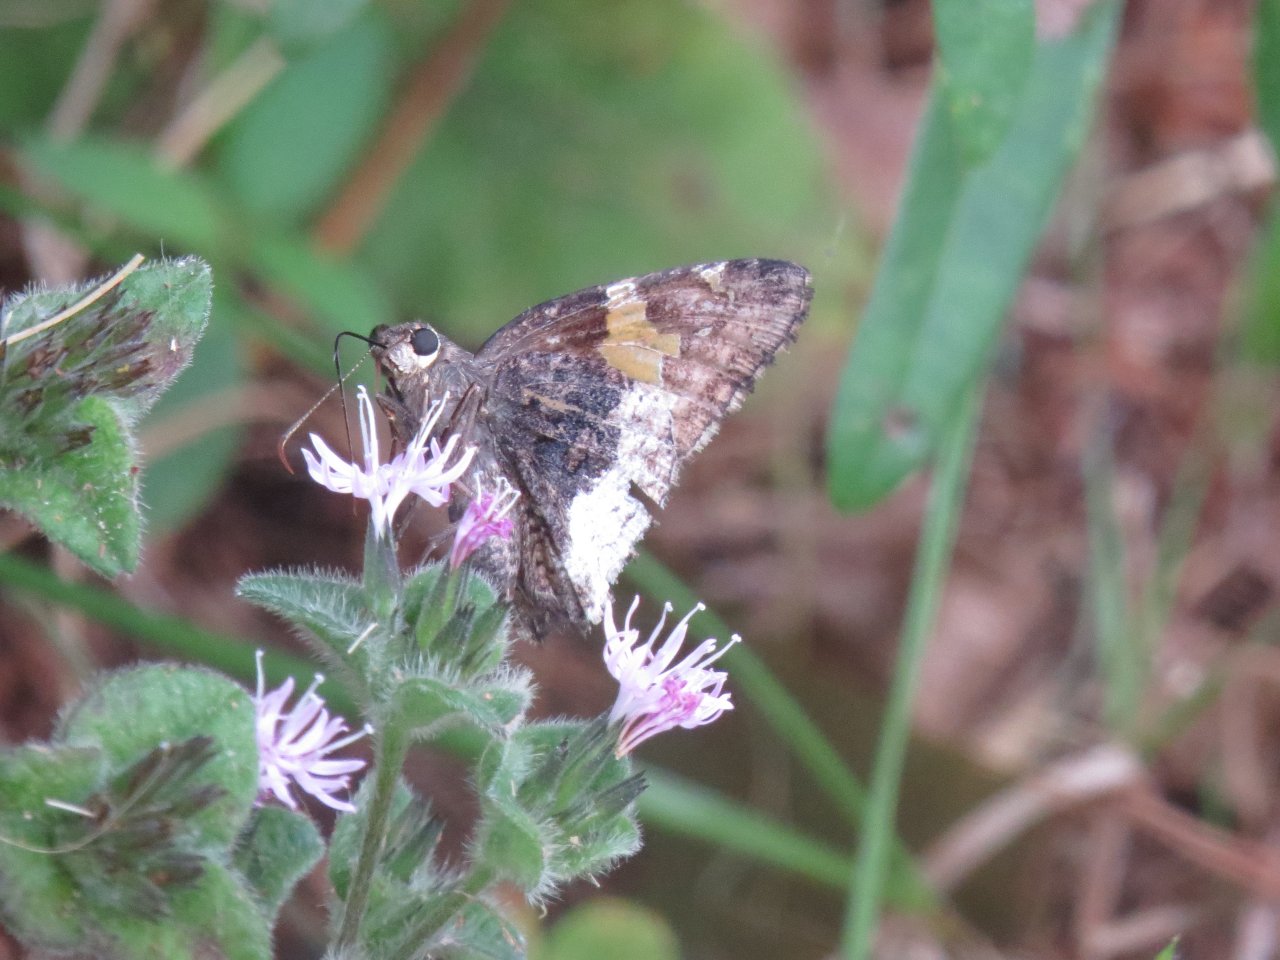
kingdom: Animalia
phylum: Arthropoda
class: Insecta
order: Lepidoptera
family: Hesperiidae
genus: Achalarus
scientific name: Achalarus lyciades
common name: Hoary Edge
